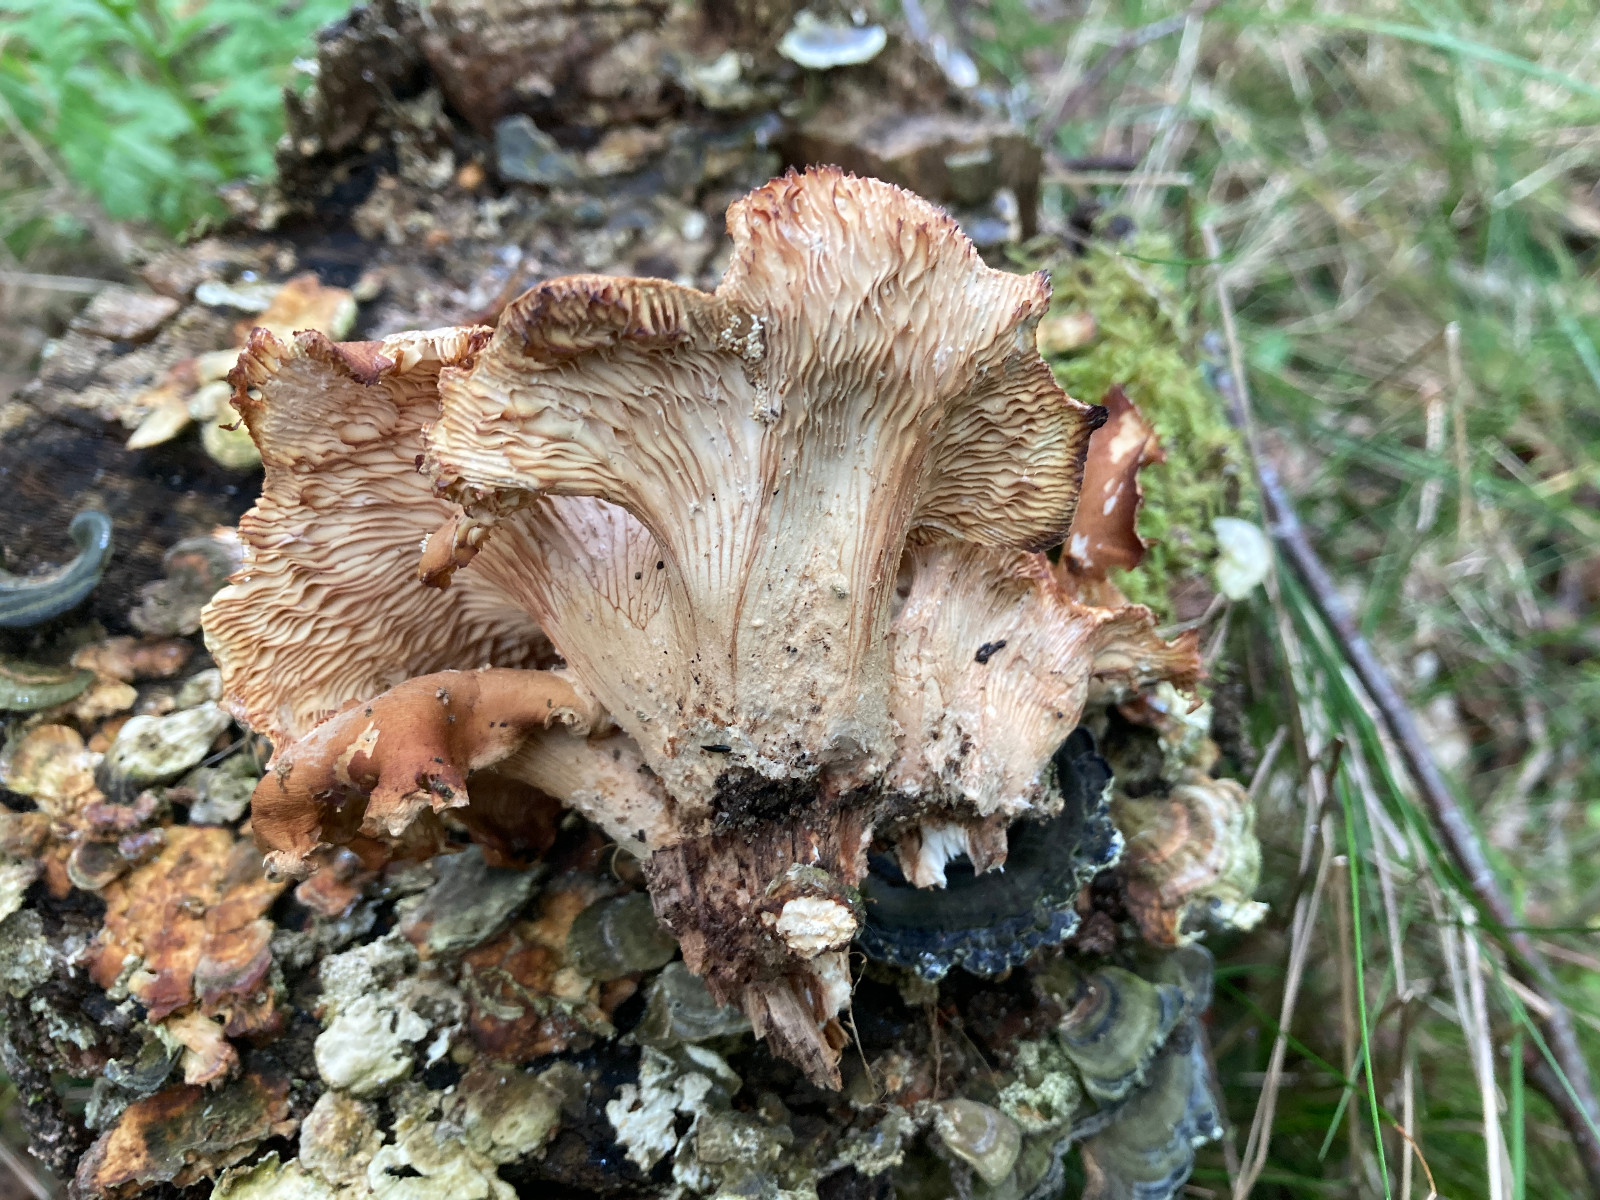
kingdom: Fungi
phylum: Basidiomycota
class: Agaricomycetes
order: Polyporales
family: Panaceae
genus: Panus
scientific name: Panus conchatus
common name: filtstokket læderhat
